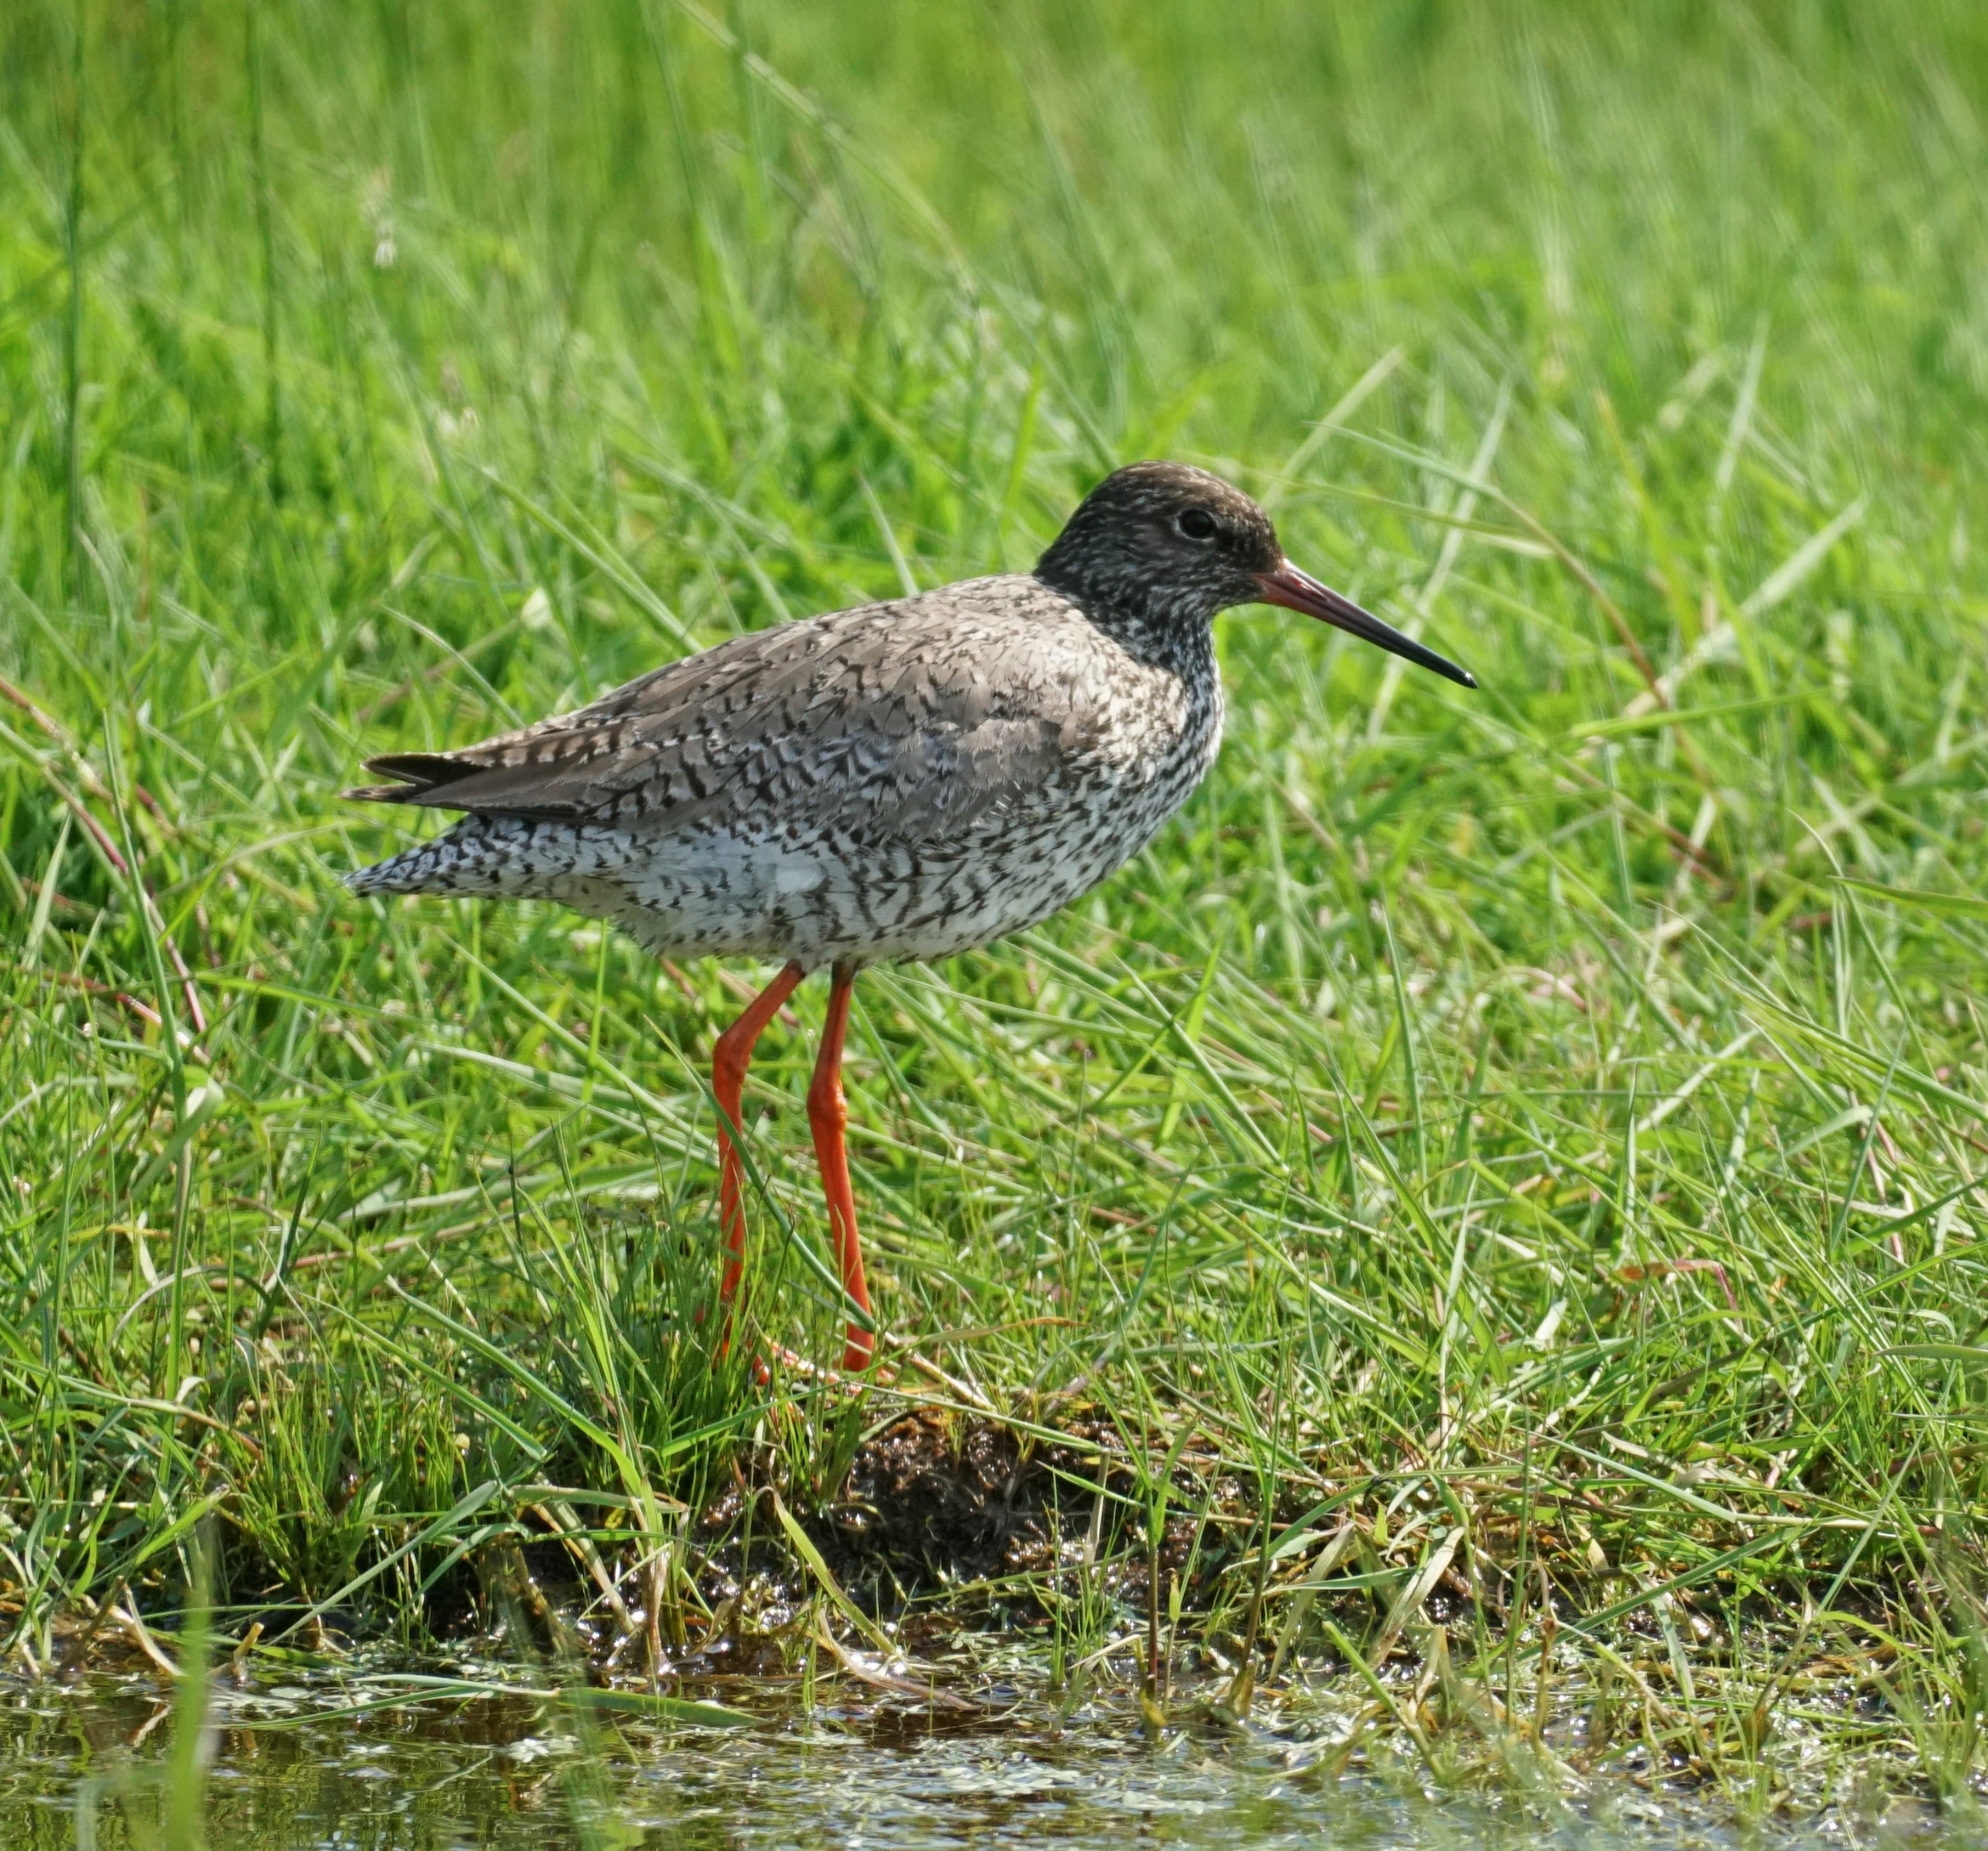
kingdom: Animalia
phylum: Chordata
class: Aves
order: Charadriiformes
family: Scolopacidae
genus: Tringa
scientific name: Tringa totanus
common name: Rødben
